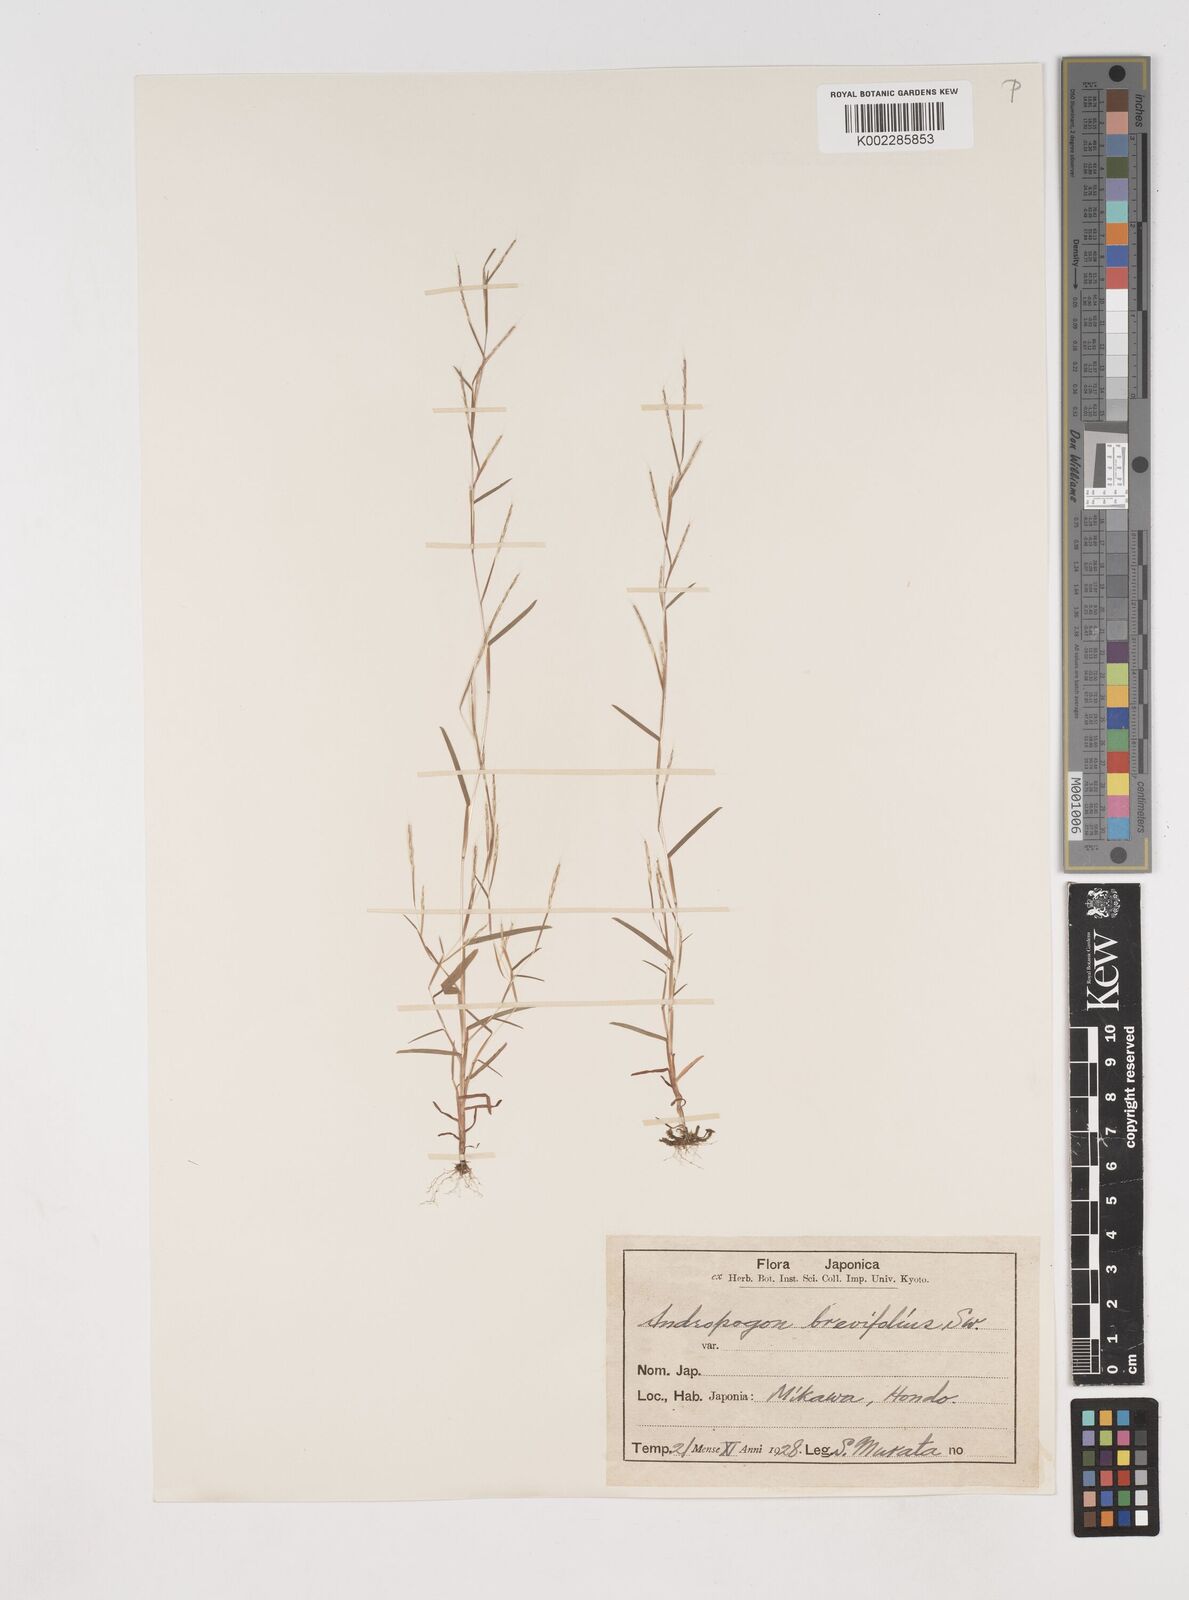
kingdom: Plantae
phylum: Tracheophyta
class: Liliopsida
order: Poales
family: Poaceae
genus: Schizachyrium
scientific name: Schizachyrium brevifolium
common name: Serillo dulce
